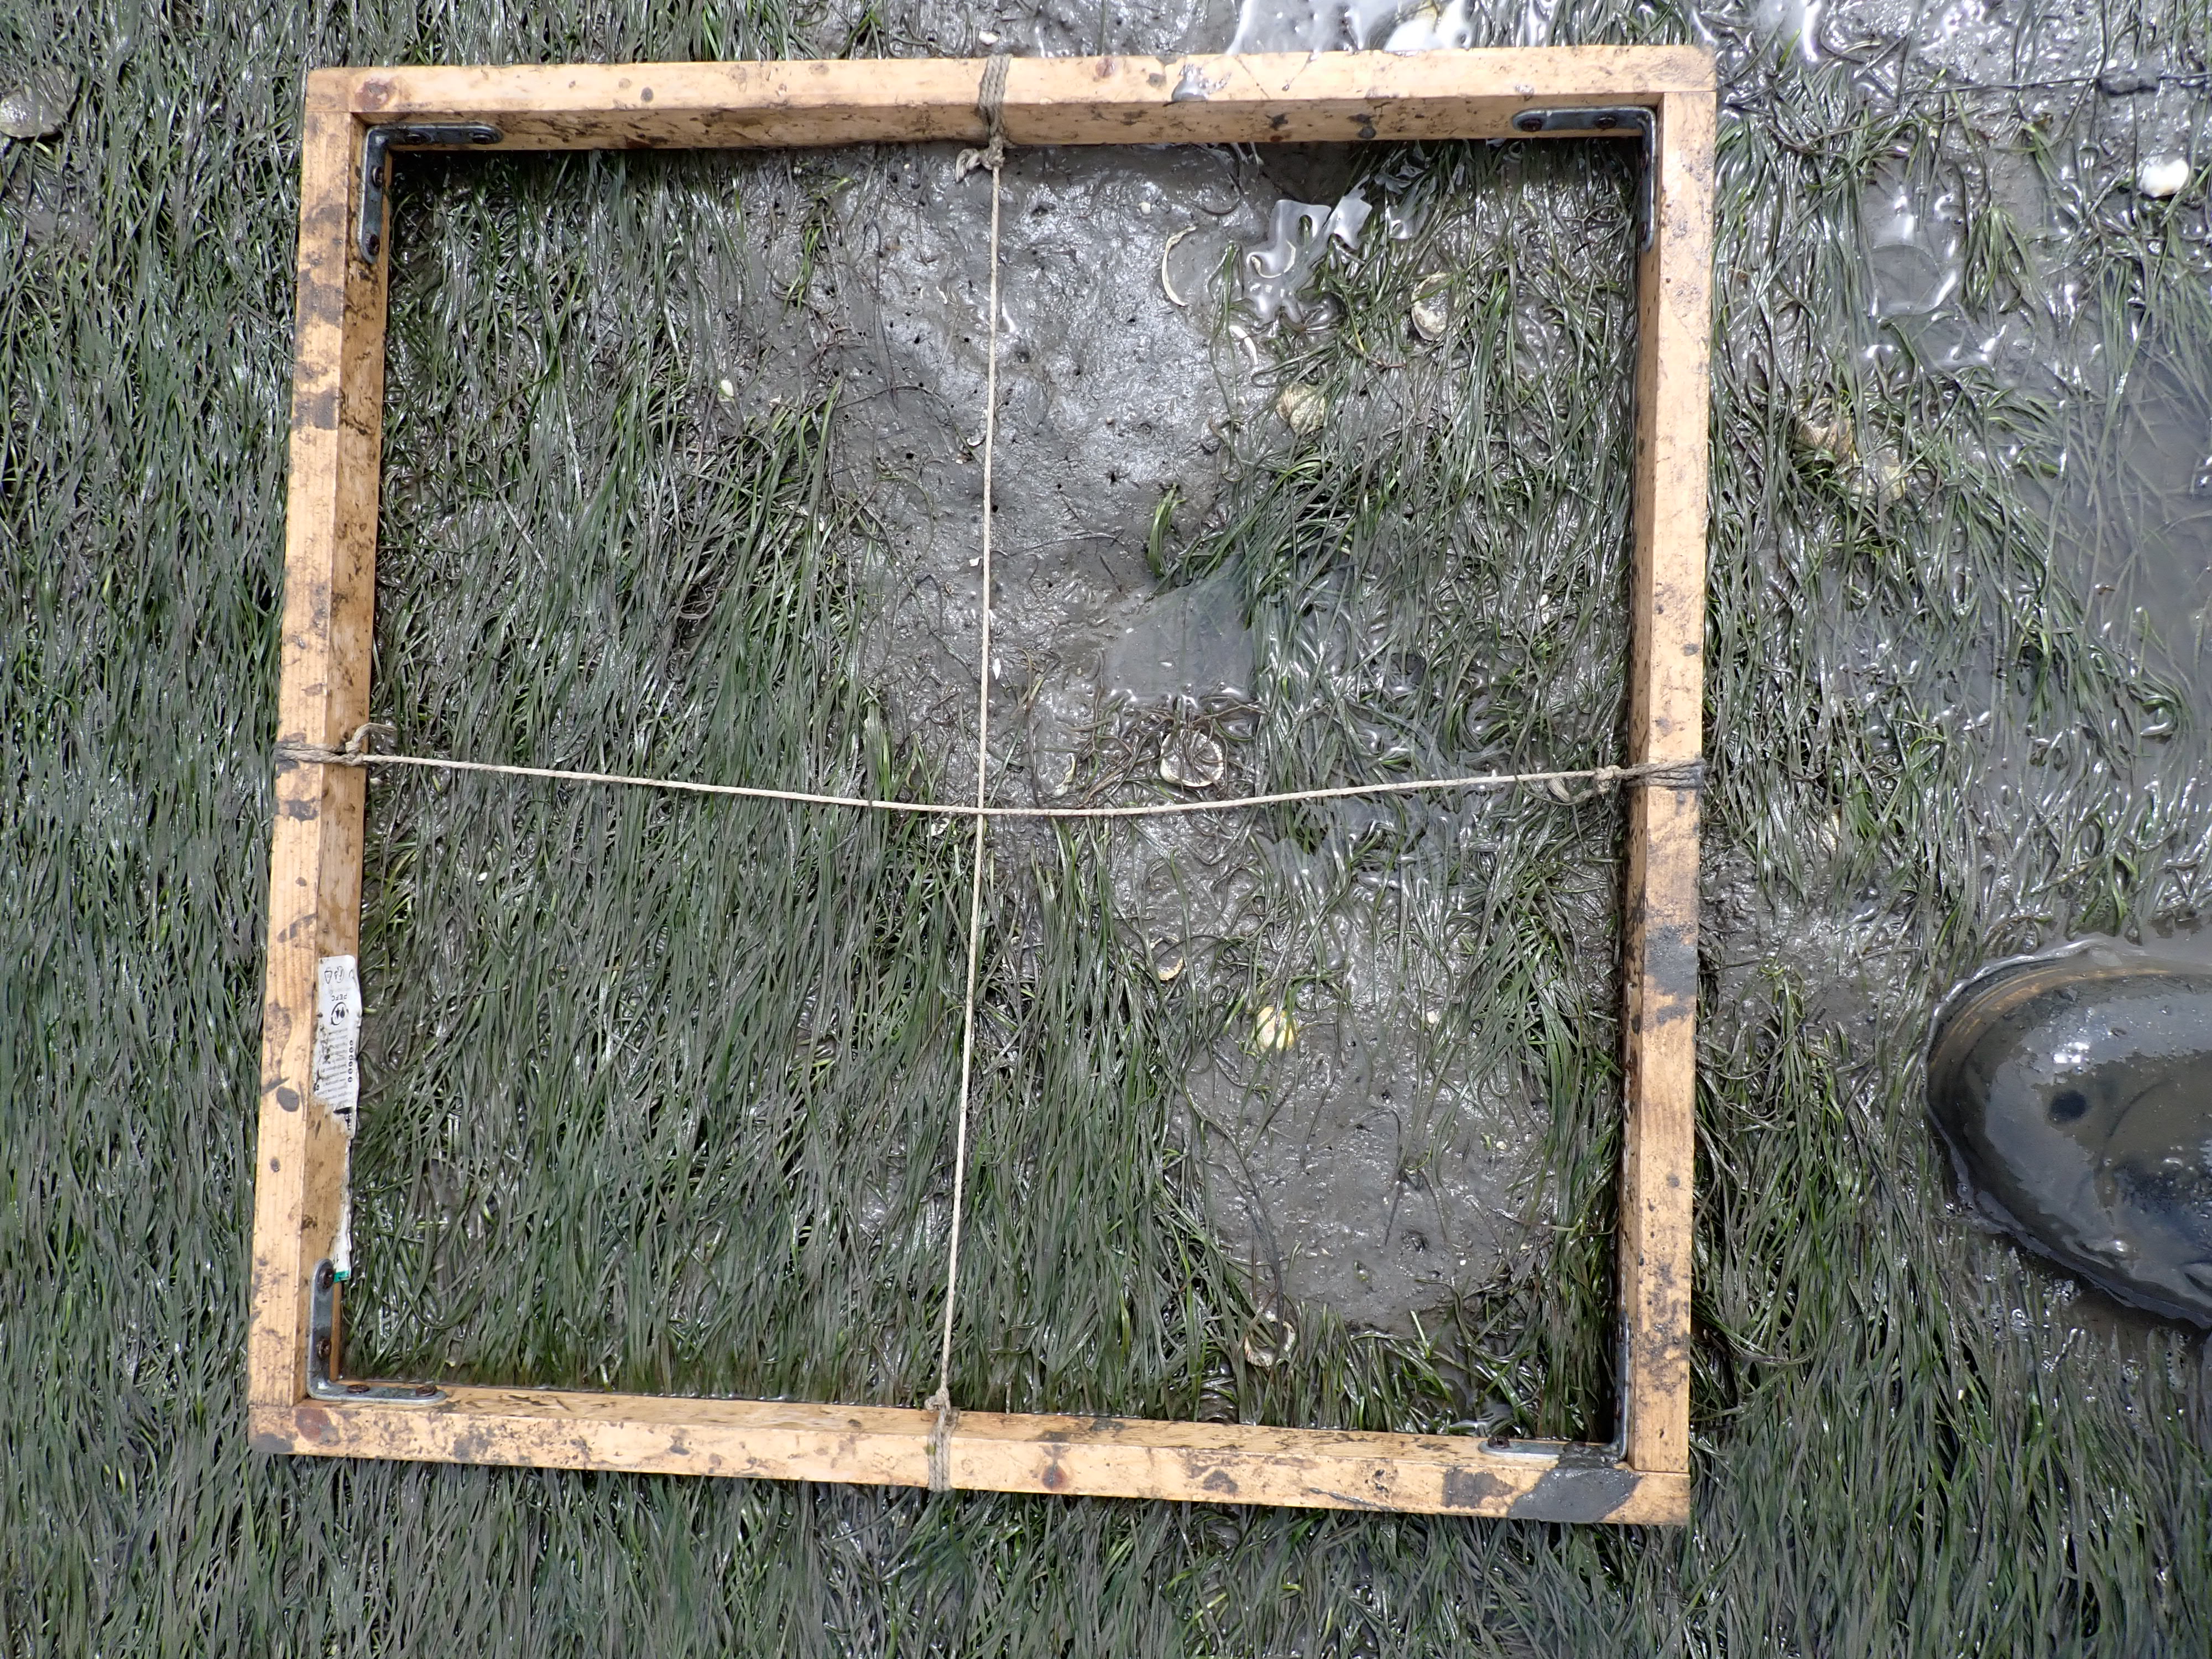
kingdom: Plantae
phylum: Tracheophyta
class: Liliopsida
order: Alismatales
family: Zosteraceae
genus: Zostera
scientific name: Zostera noltii
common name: Dwarf eelgrass
